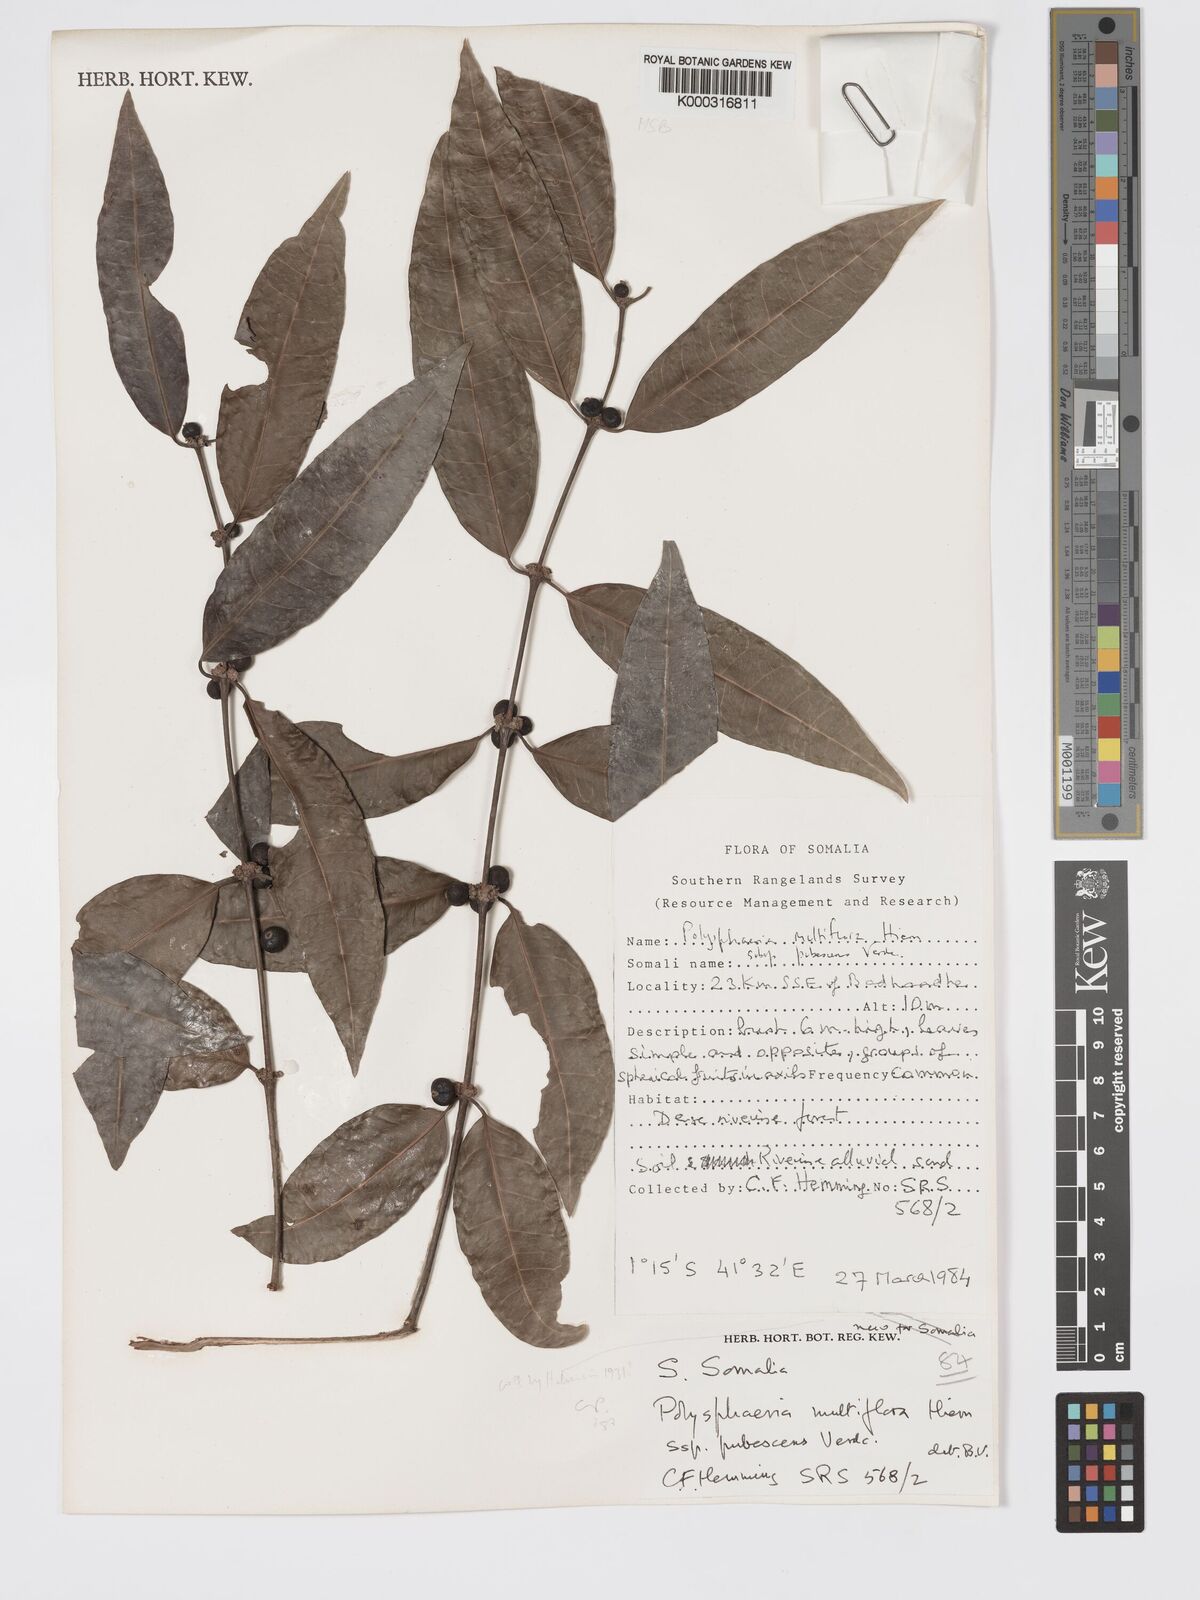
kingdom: Plantae
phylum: Tracheophyta
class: Magnoliopsida
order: Gentianales
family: Rubiaceae
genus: Polysphaeria
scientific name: Polysphaeria multiflora
